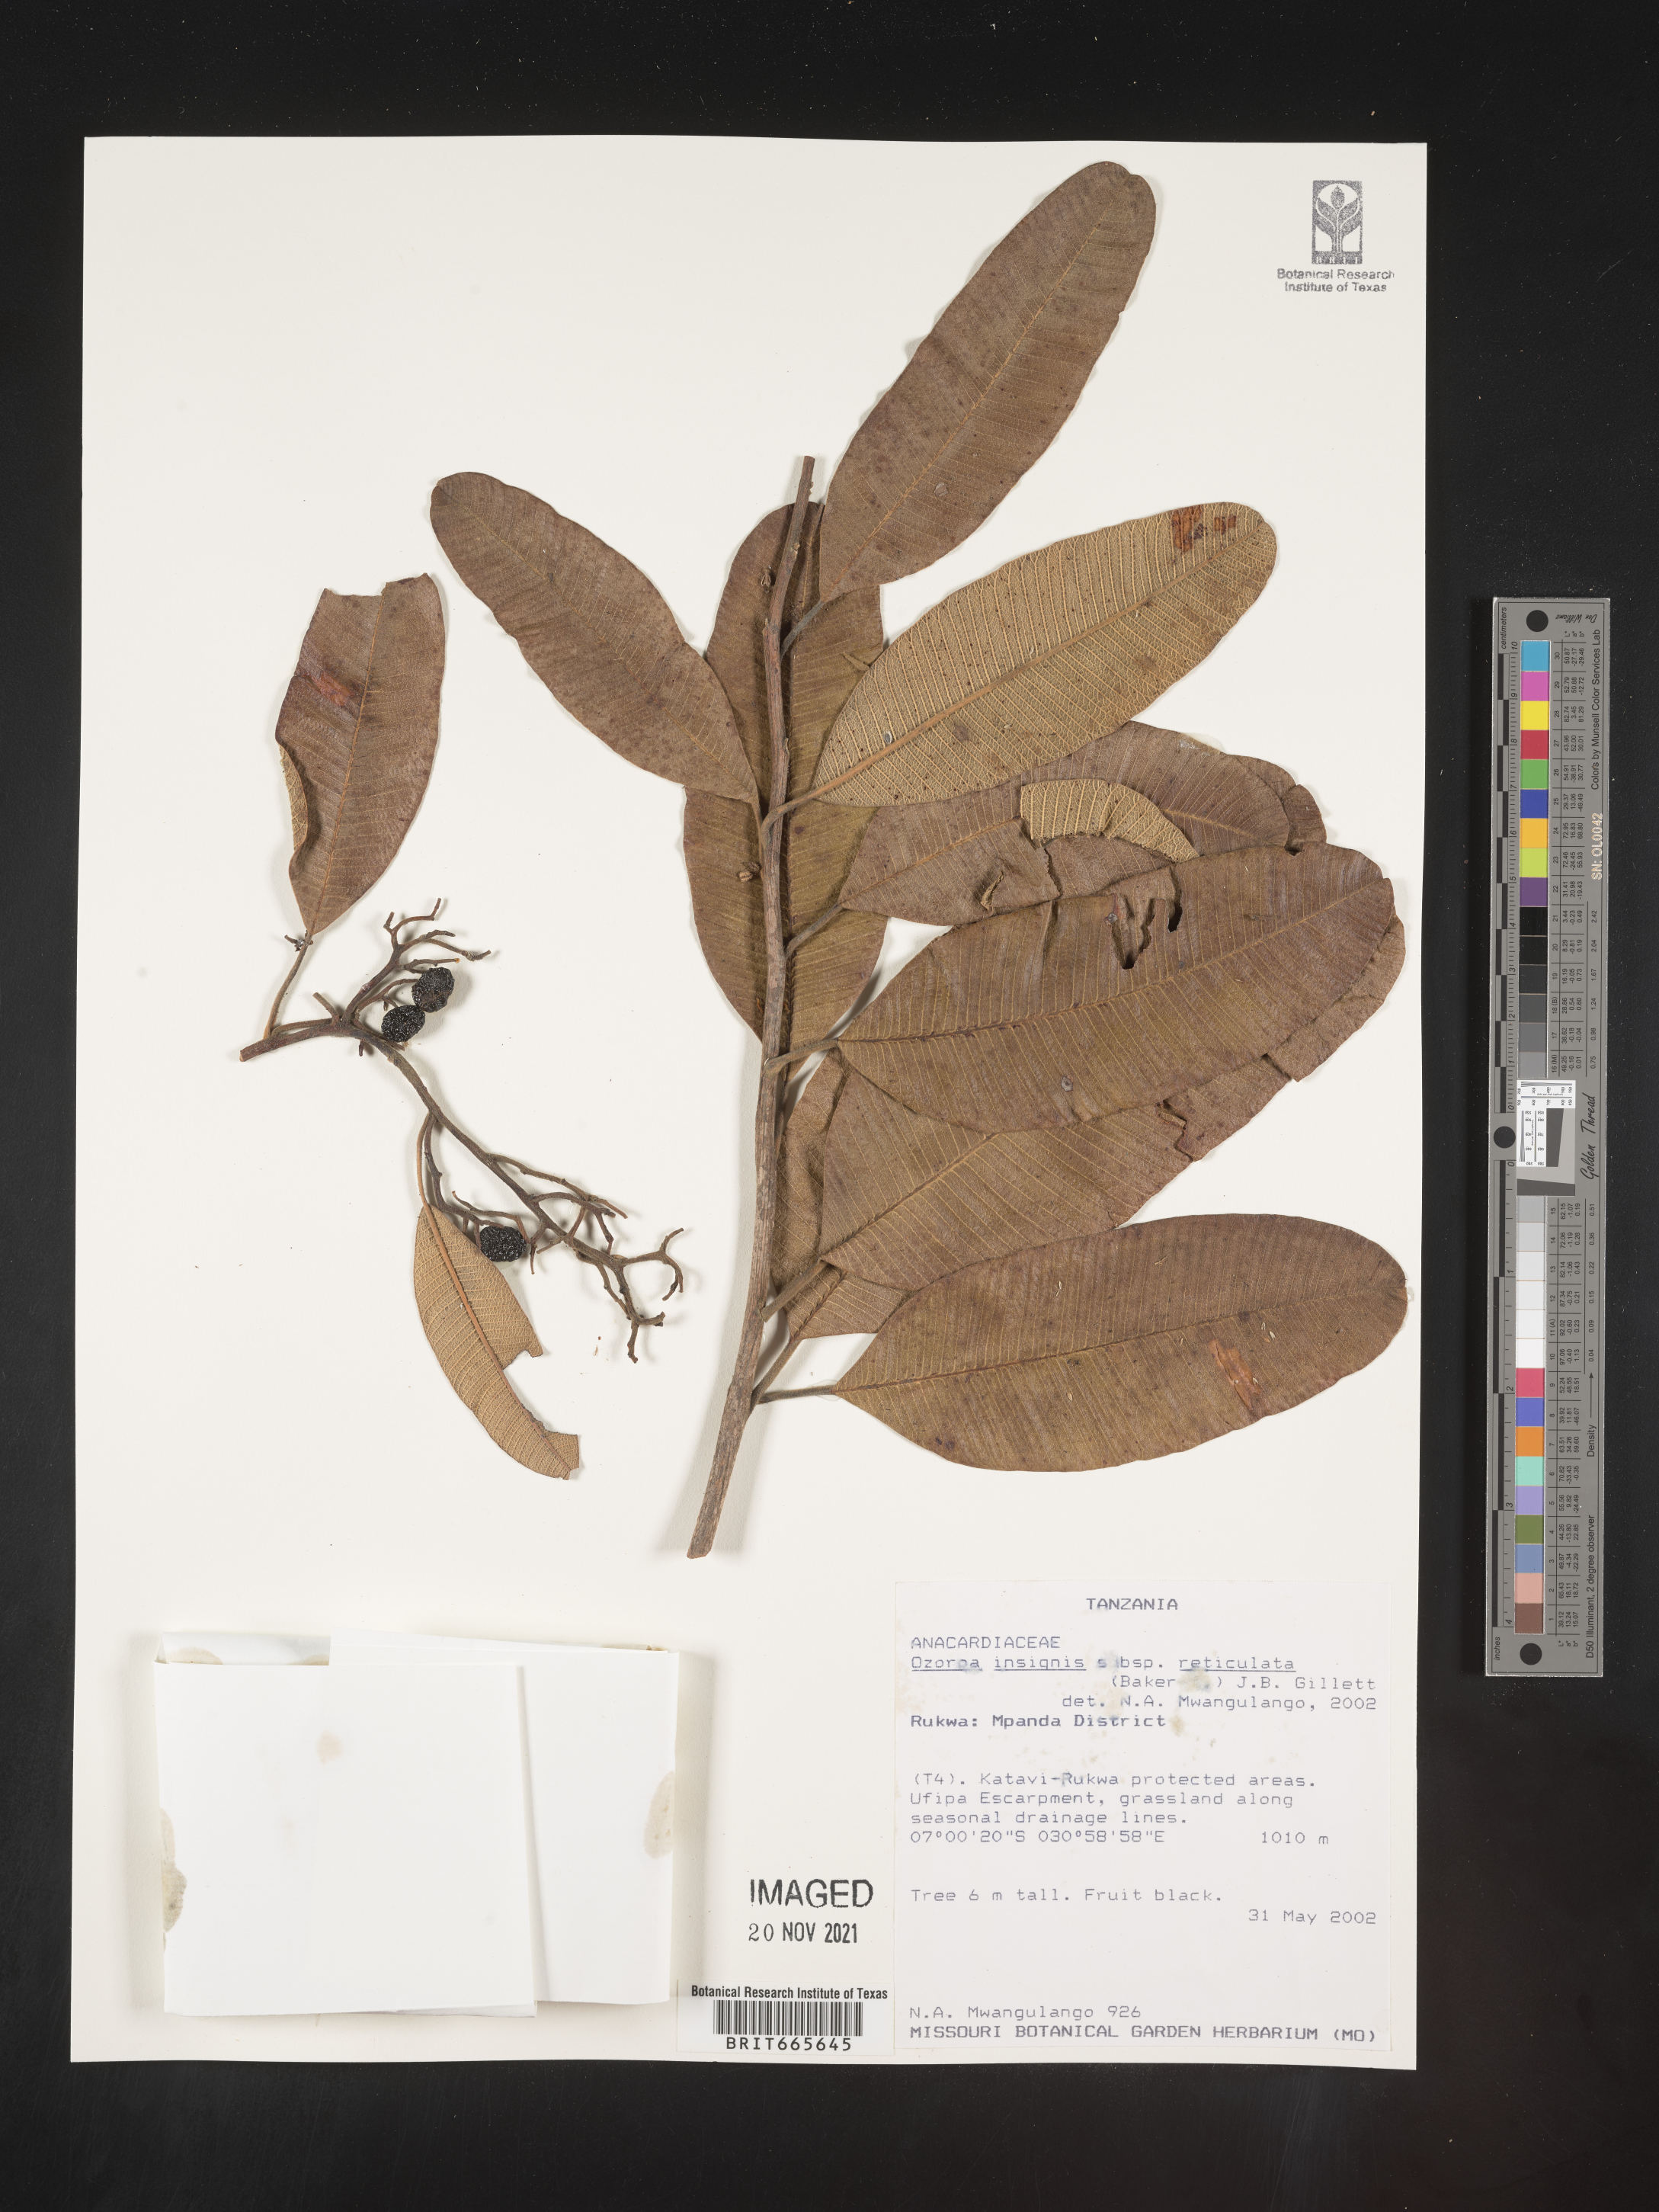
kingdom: Plantae
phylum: Tracheophyta
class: Magnoliopsida
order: Sapindales
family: Anacardiaceae
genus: Ozoroa
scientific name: Ozoroa
